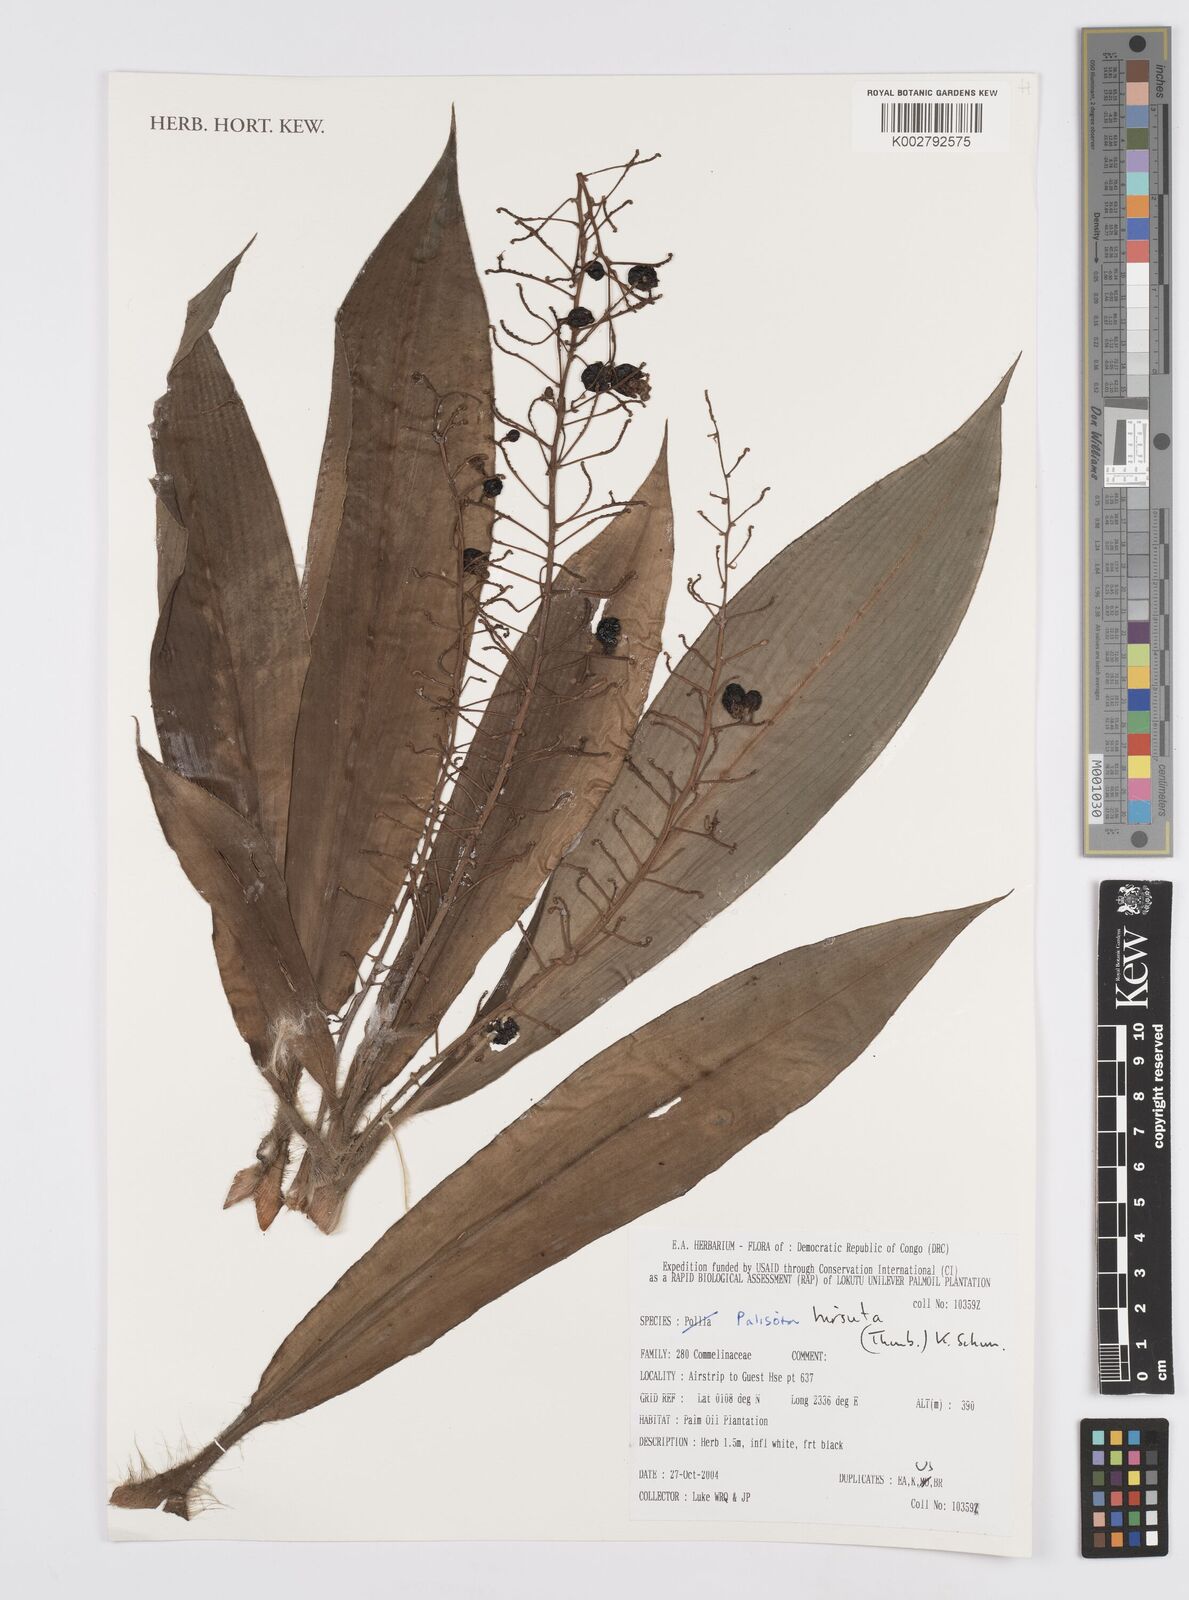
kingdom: Plantae
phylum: Tracheophyta
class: Liliopsida
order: Commelinales
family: Commelinaceae
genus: Palisota
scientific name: Palisota hirsuta
